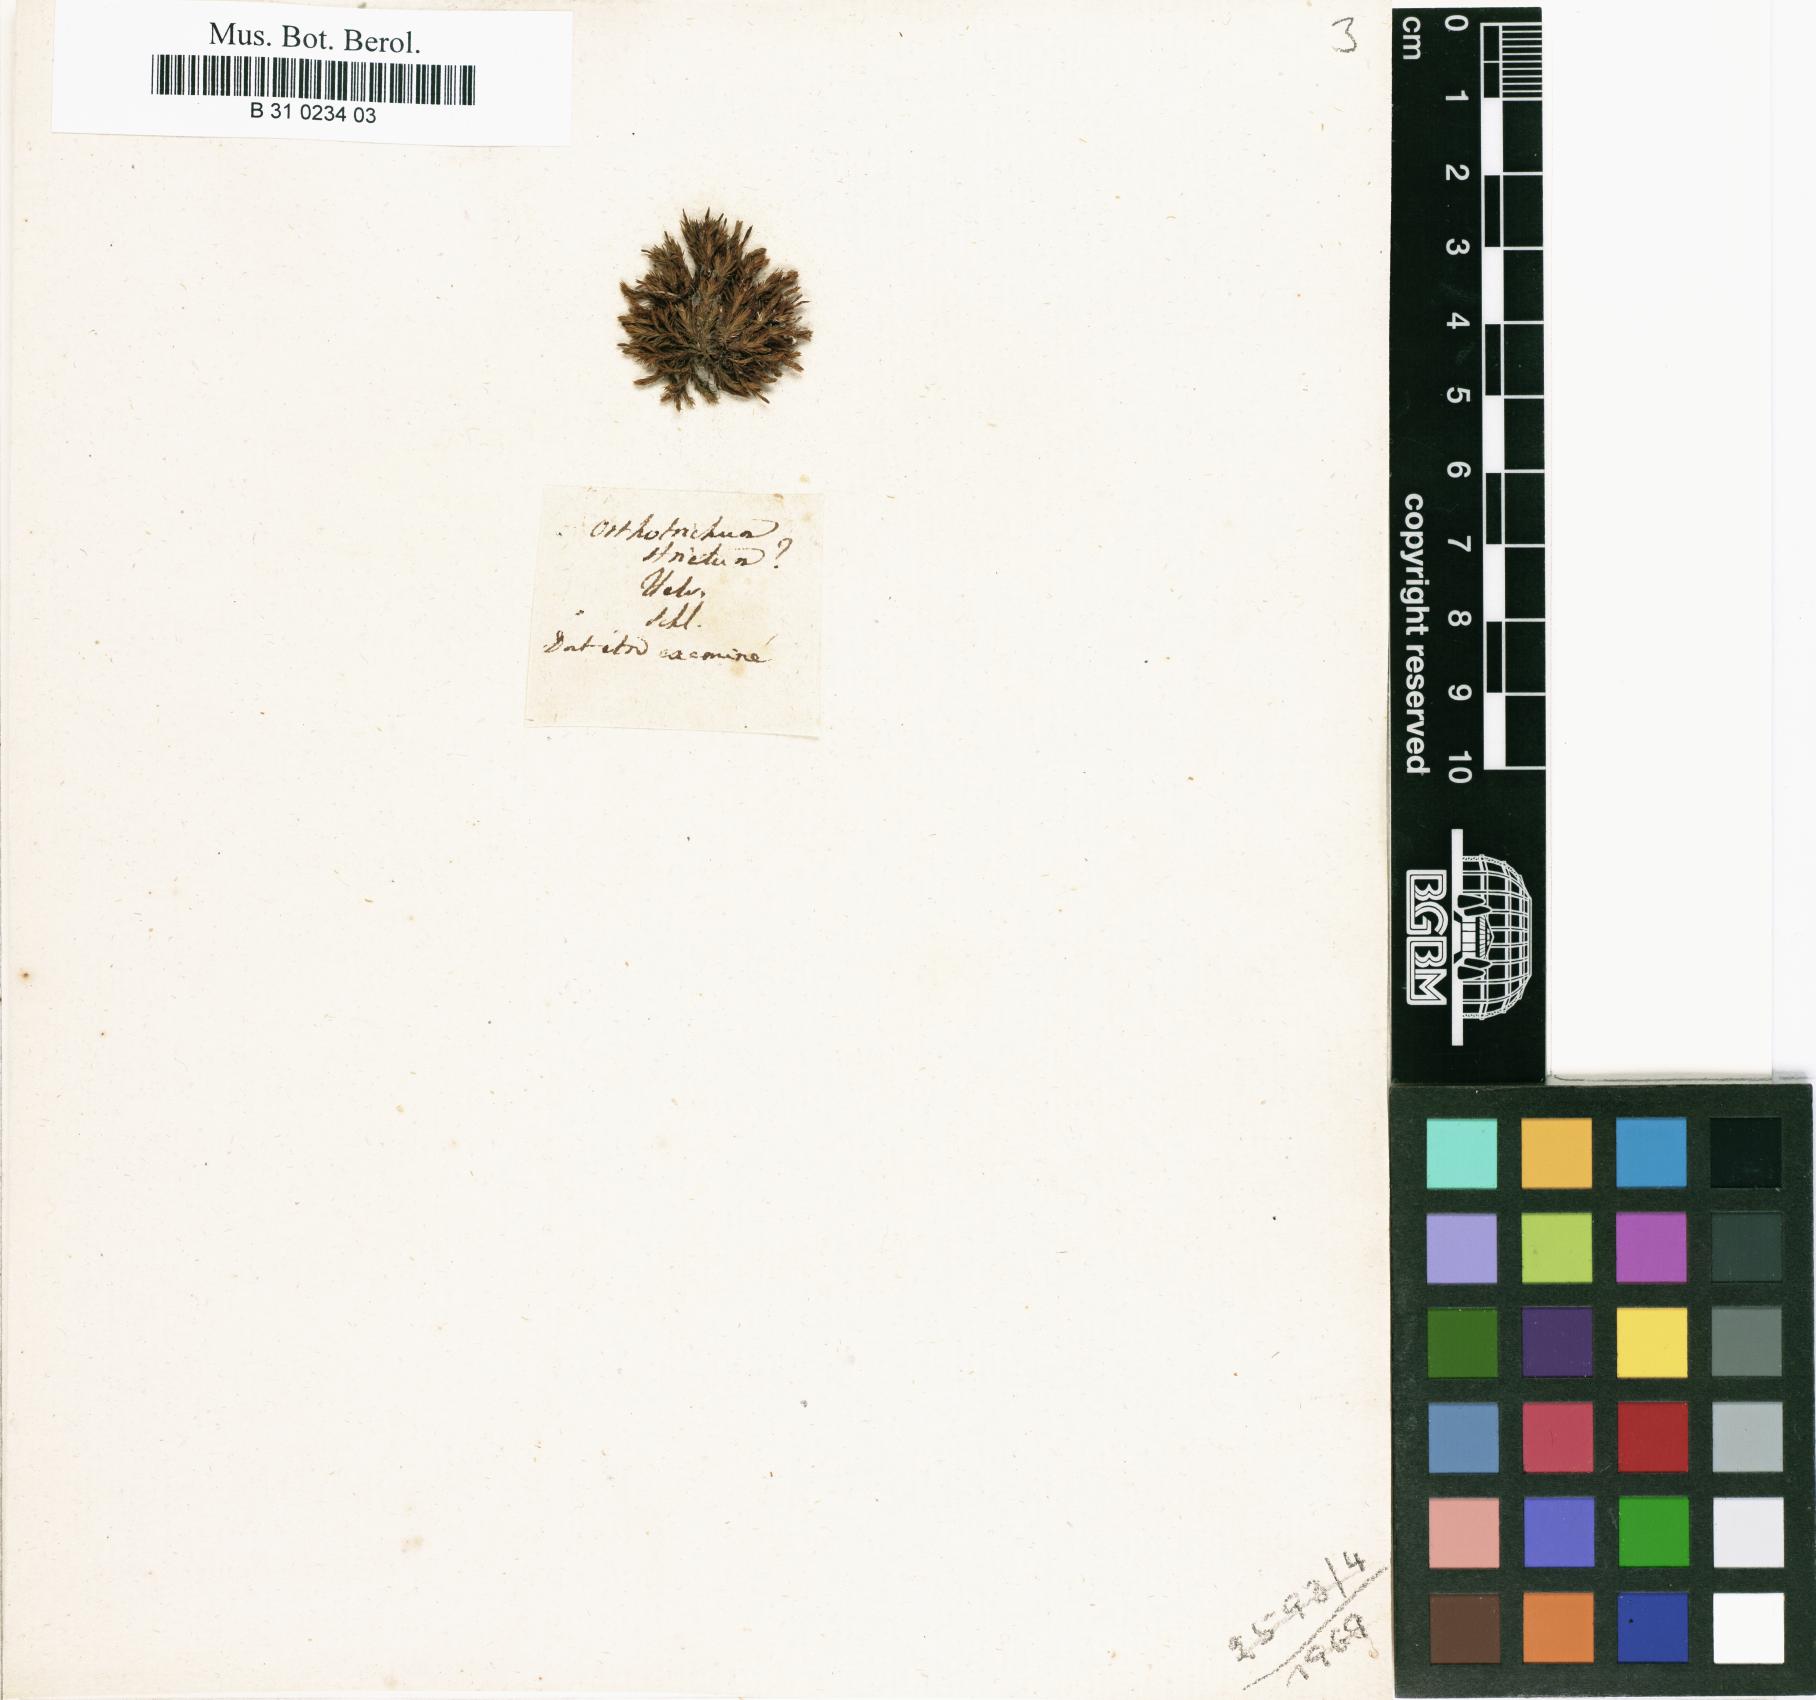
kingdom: Plantae
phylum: Bryophyta
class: Bryopsida
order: Orthotrichales
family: Orthotrichaceae
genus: Lewinskya
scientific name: Lewinskya striata
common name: Shaw's bristle-moss
